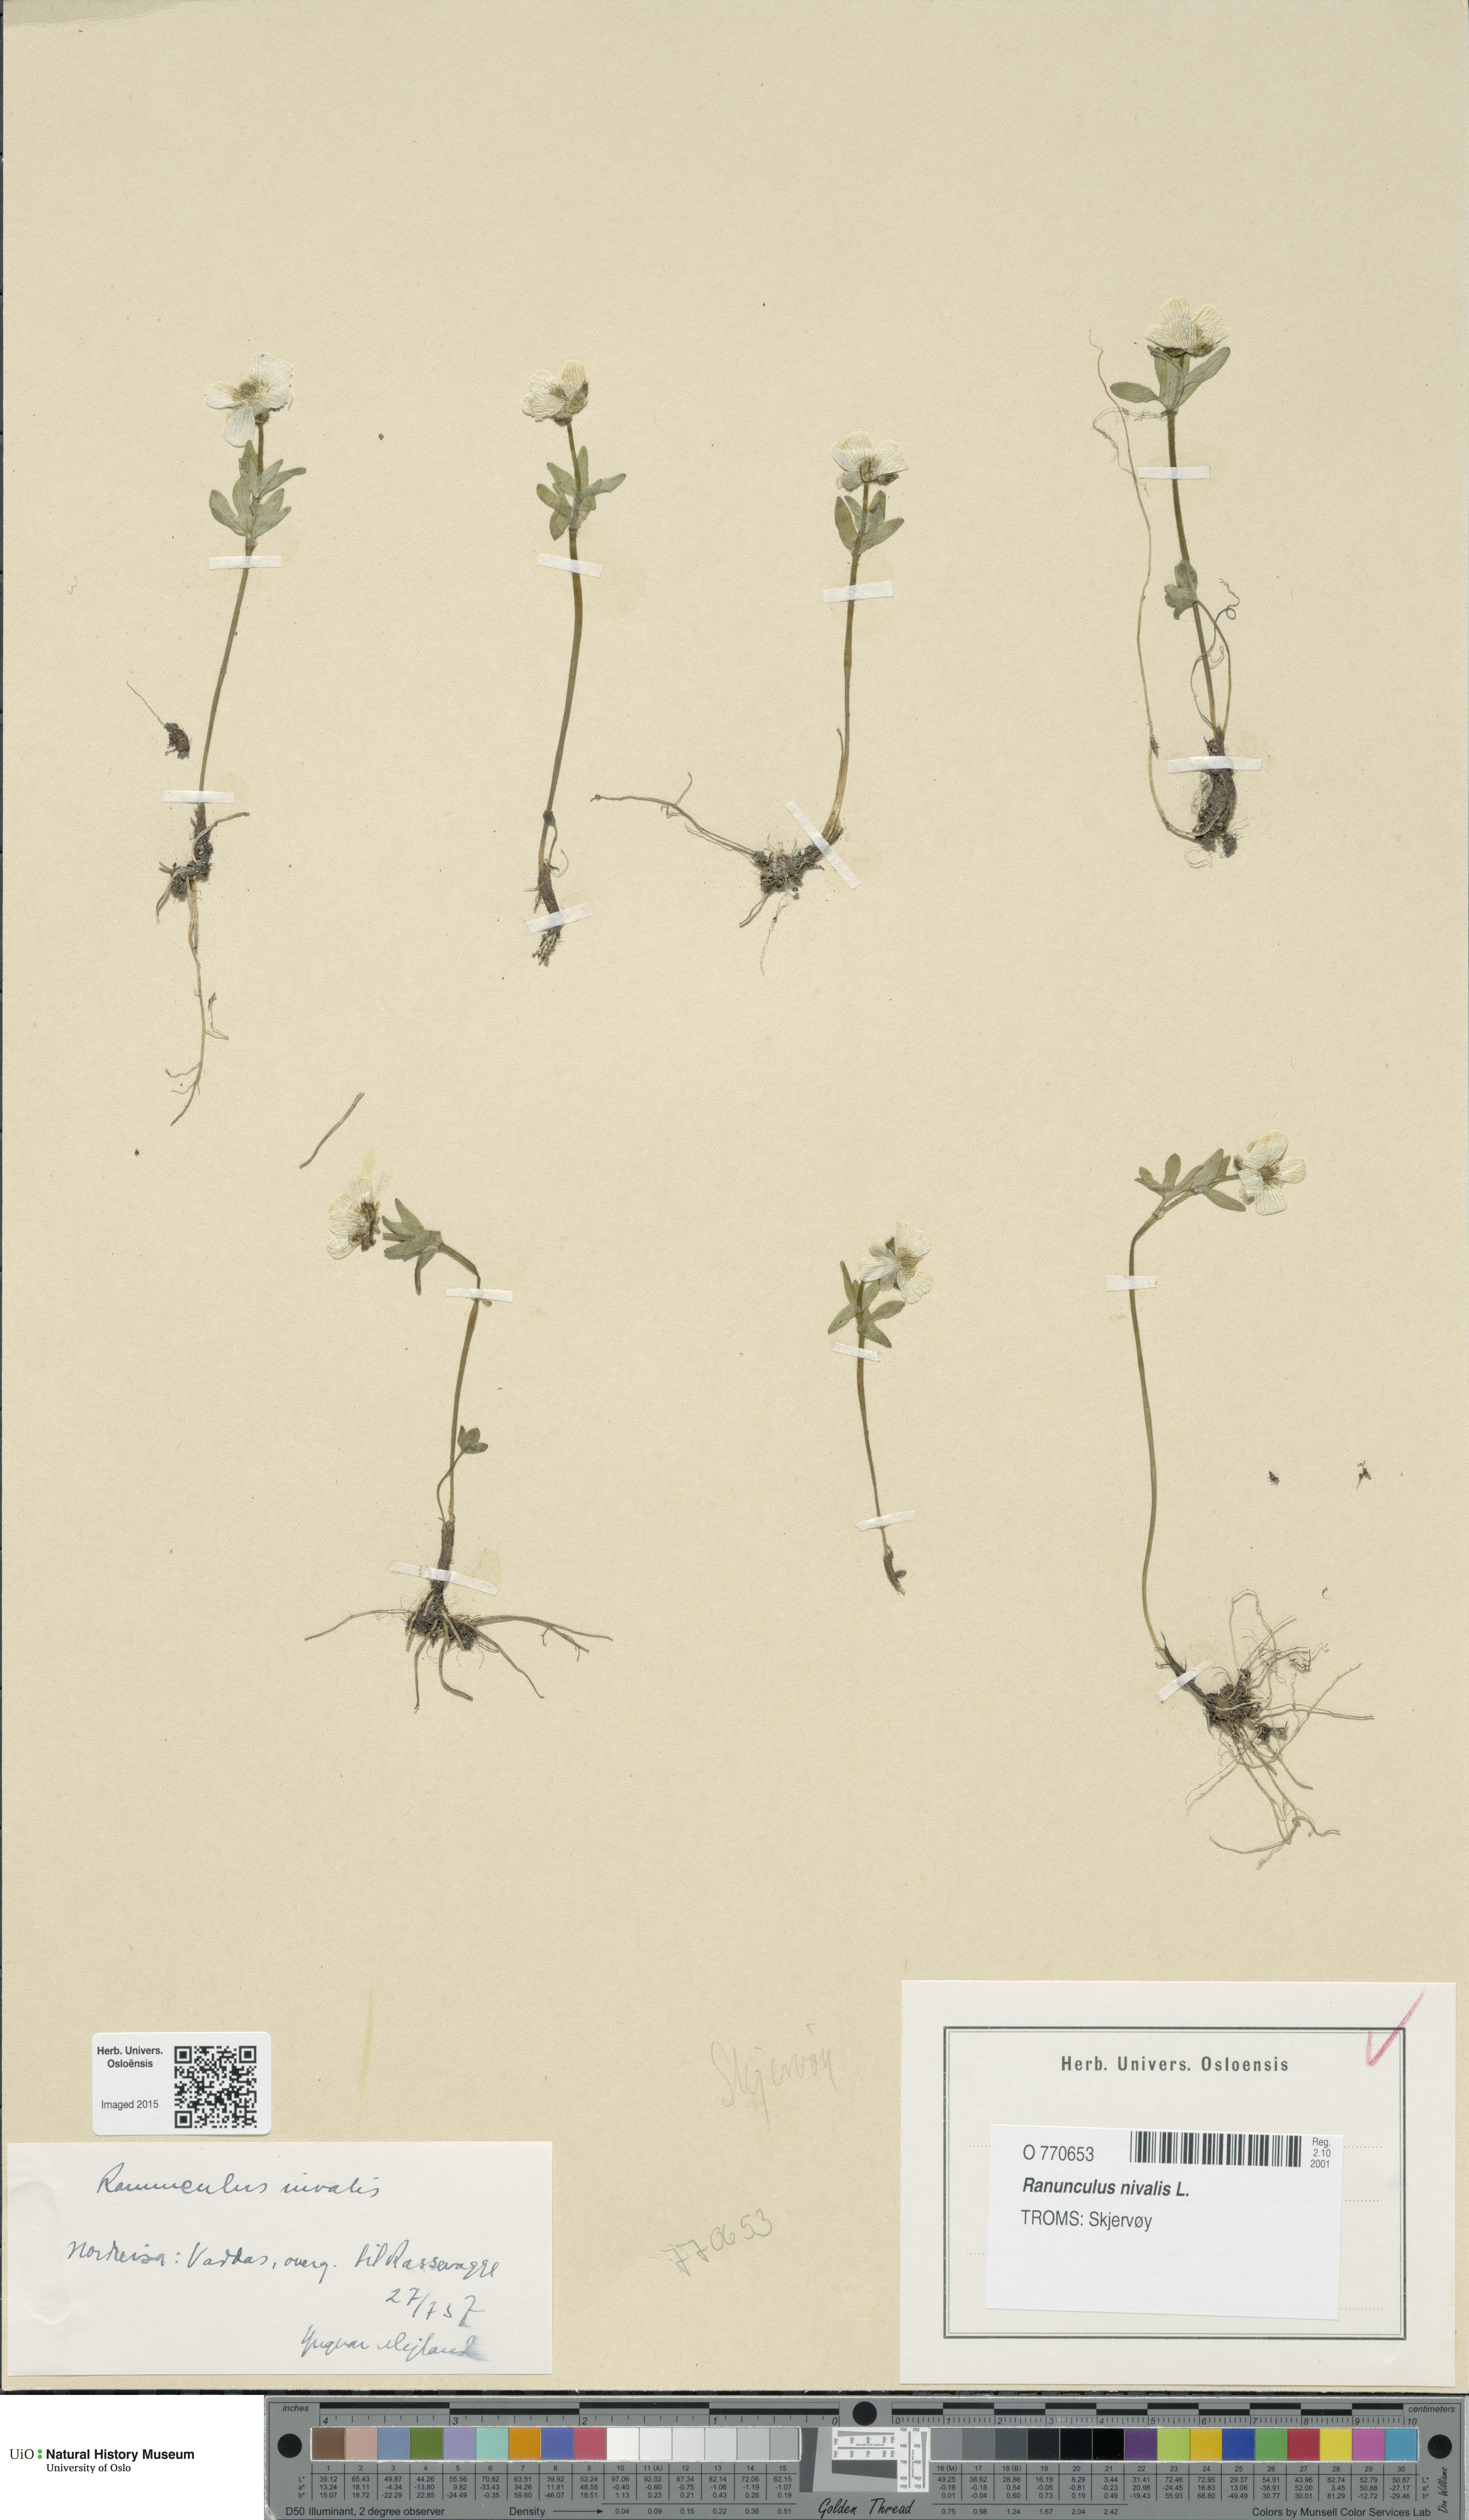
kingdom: Plantae
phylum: Tracheophyta
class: Magnoliopsida
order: Ranunculales
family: Ranunculaceae
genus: Ranunculus
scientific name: Ranunculus nivalis
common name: Snow buttercup
